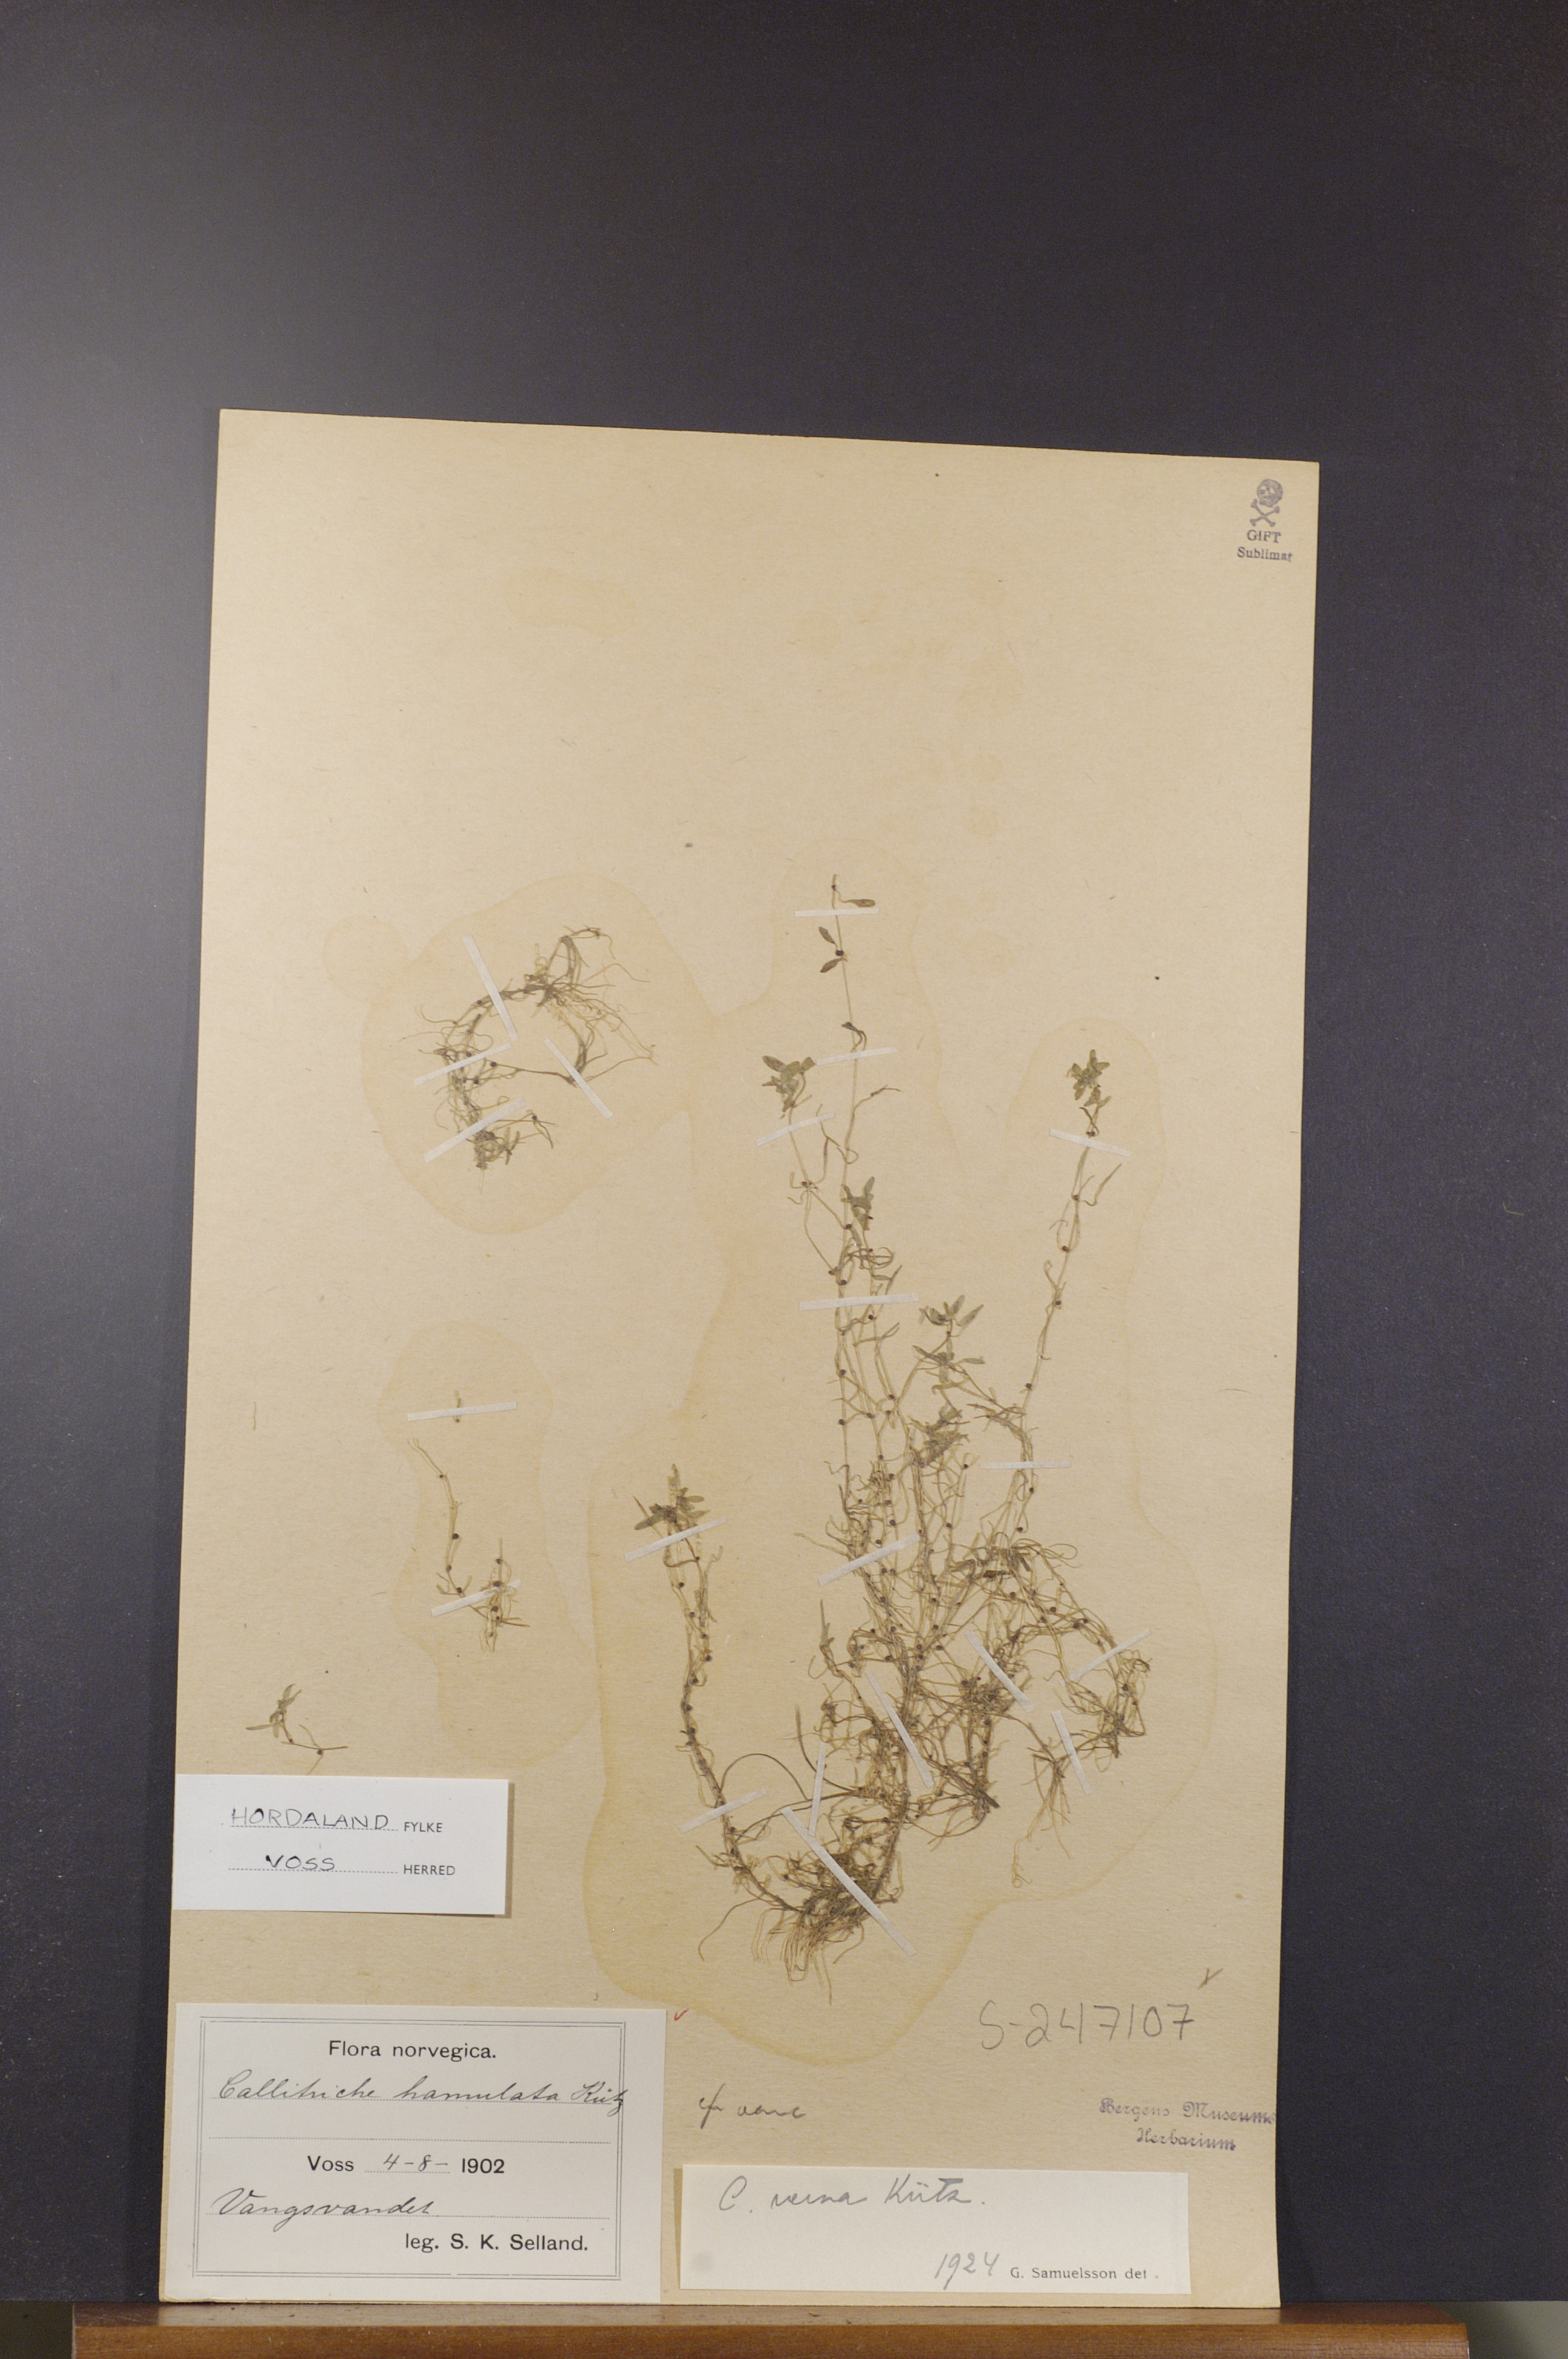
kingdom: Plantae
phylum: Tracheophyta
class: Magnoliopsida
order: Lamiales
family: Plantaginaceae
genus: Callitriche
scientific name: Callitriche palustris
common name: Spring water-starwort
